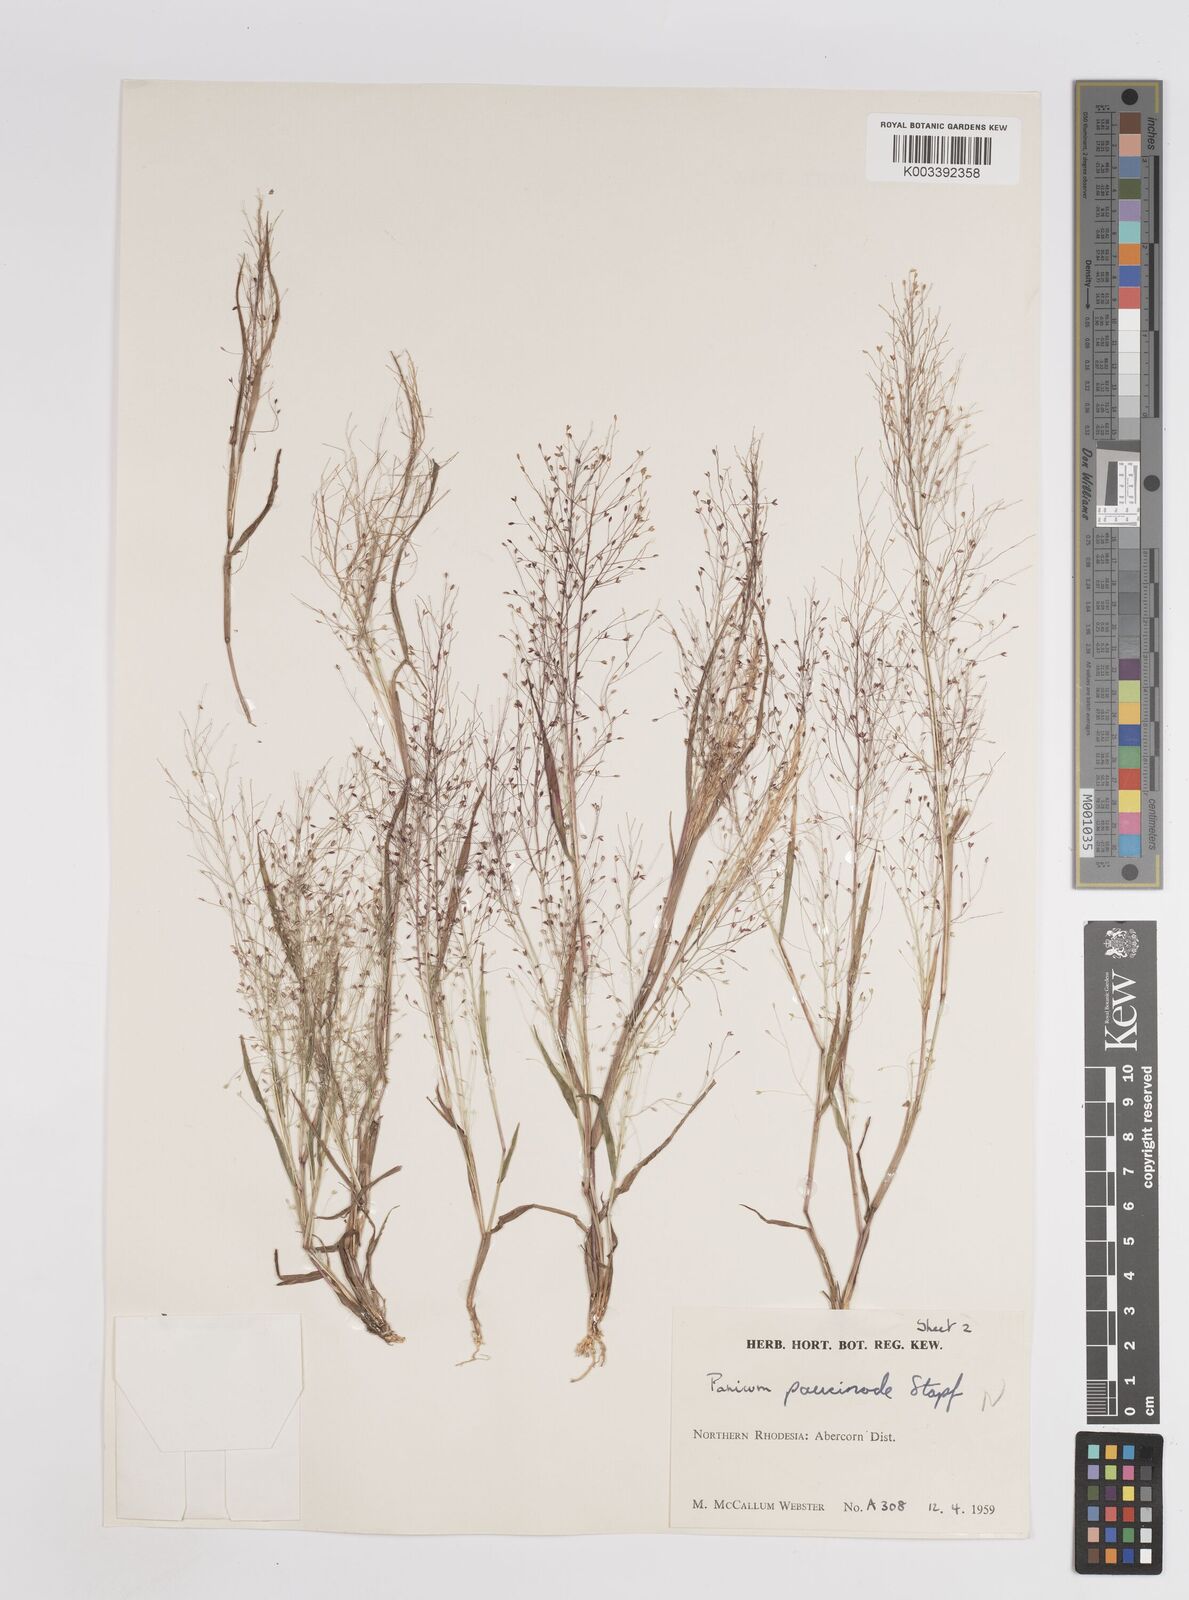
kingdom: Plantae
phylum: Tracheophyta
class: Liliopsida
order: Poales
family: Poaceae
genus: Panicum
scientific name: Panicum humile
